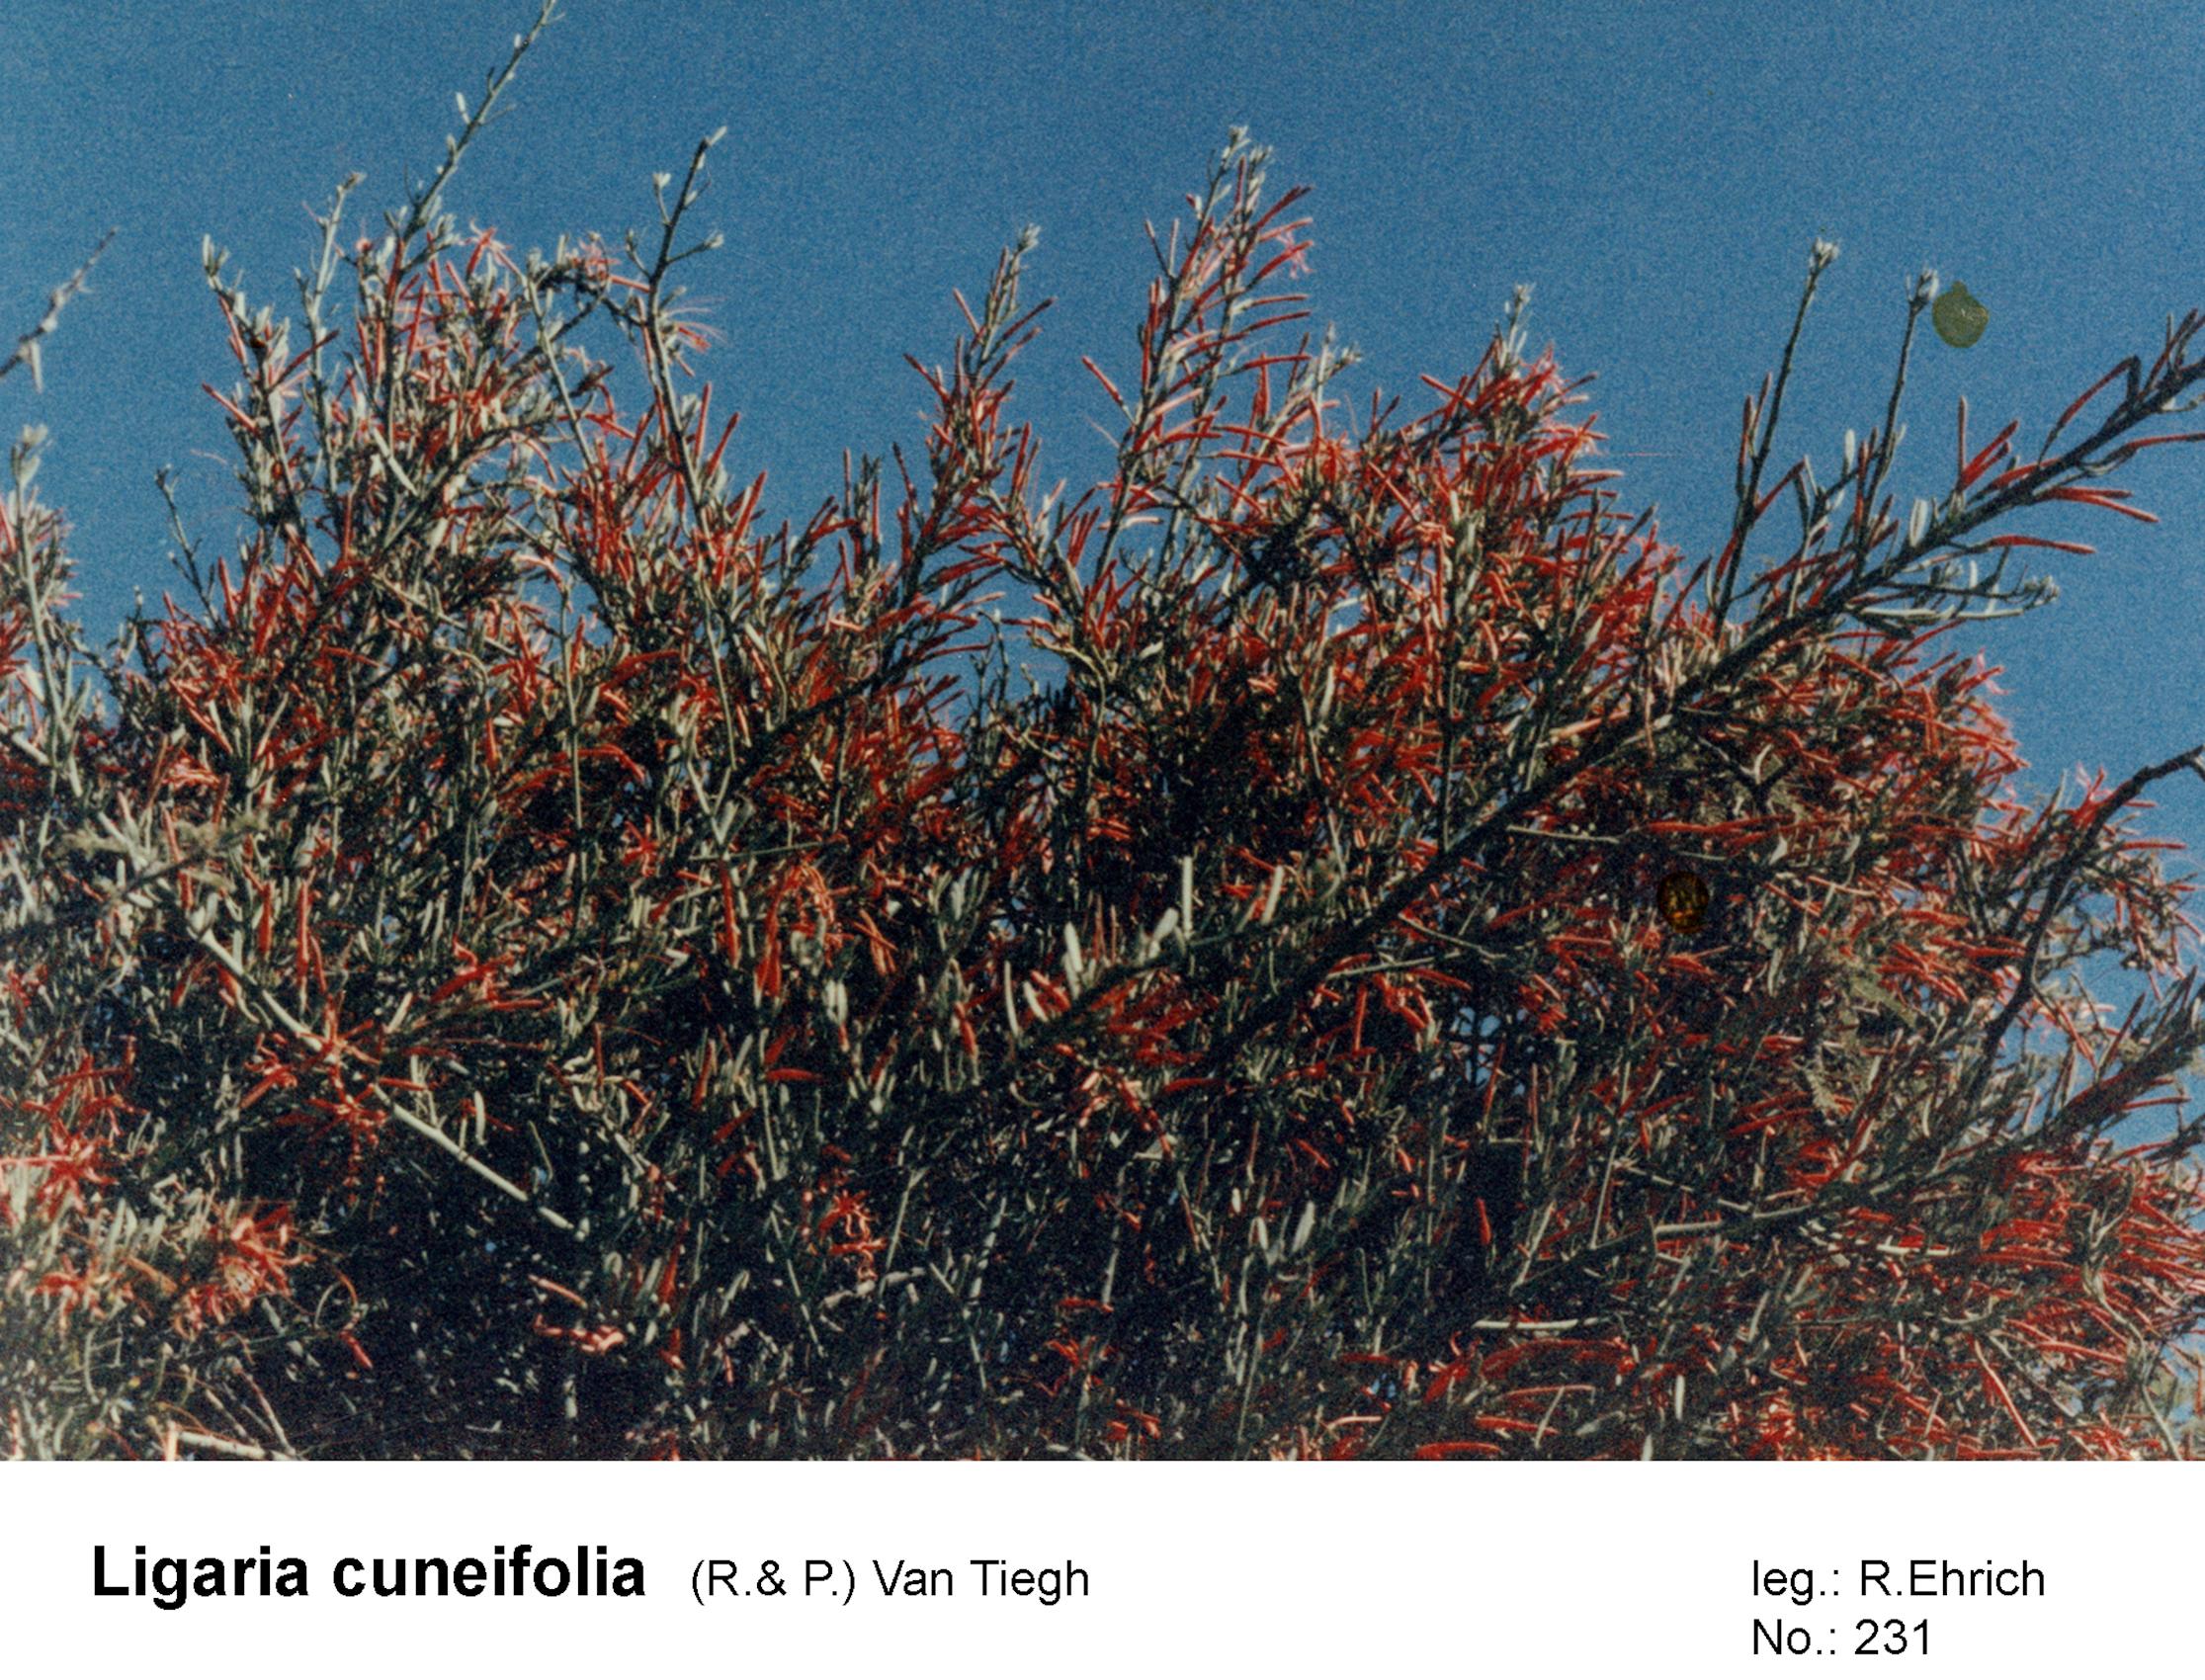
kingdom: Plantae
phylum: Tracheophyta
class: Magnoliopsida
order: Santalales
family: Loranthaceae
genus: Ligaria
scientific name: Ligaria cuneifolia
